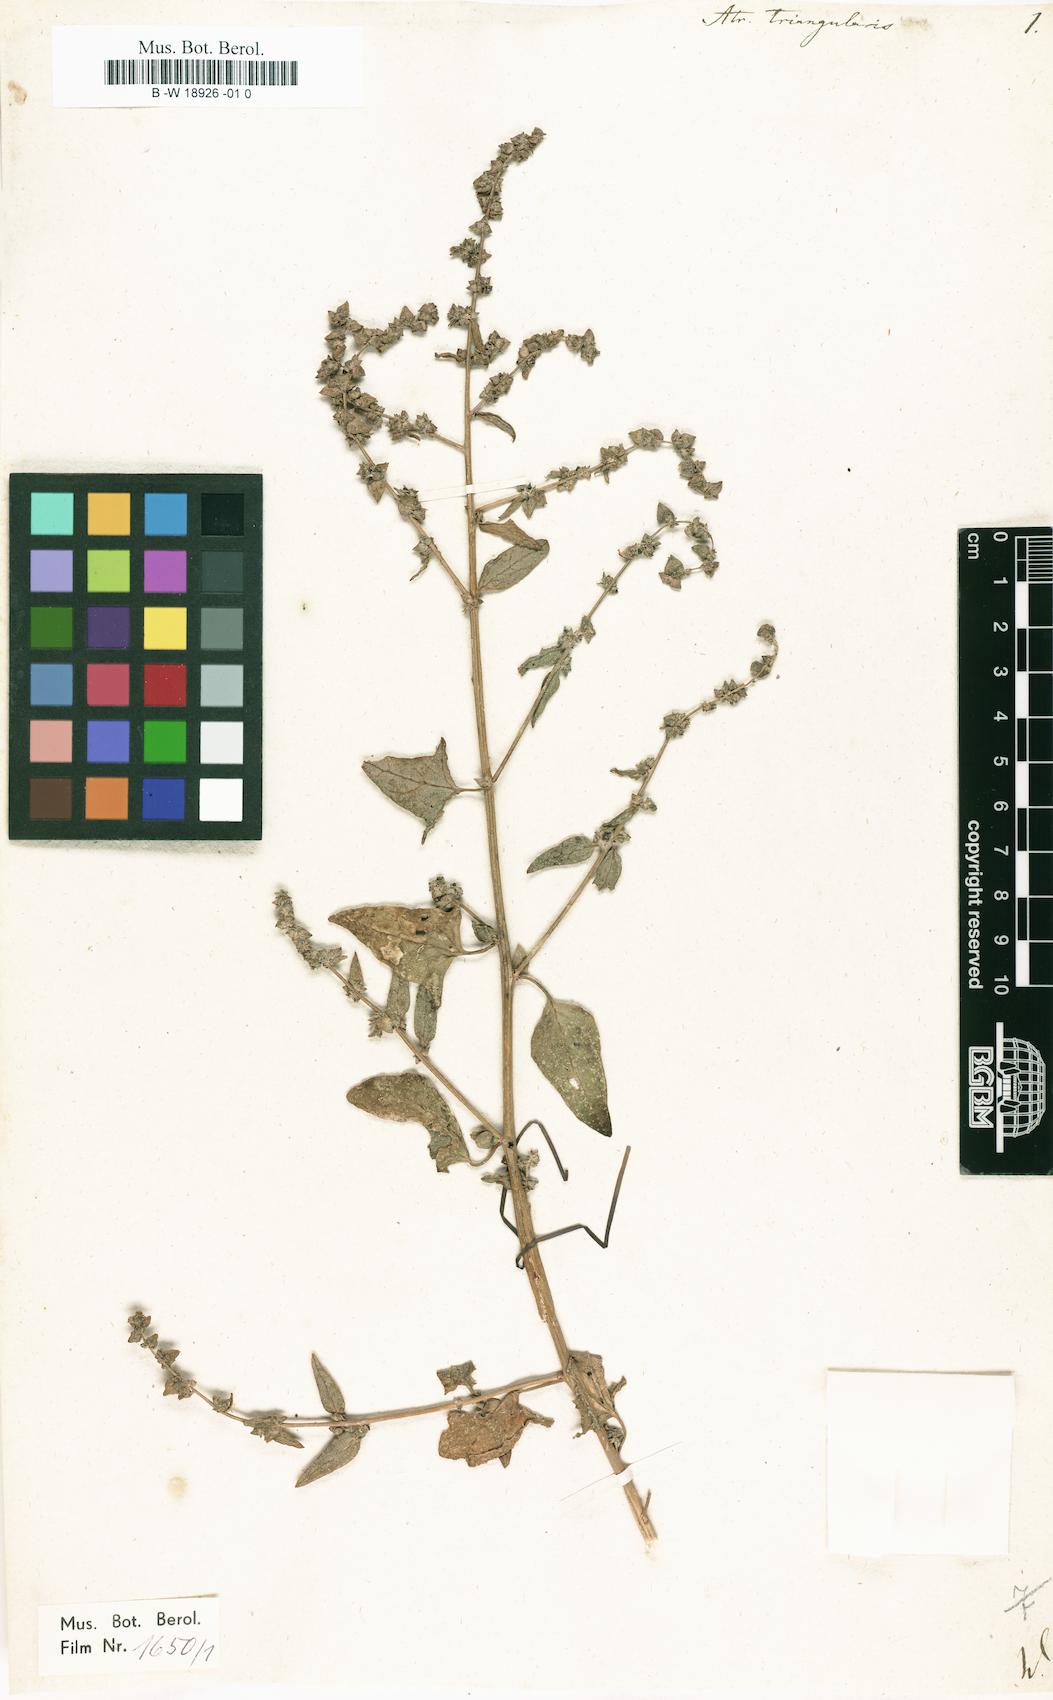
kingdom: Plantae
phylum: Tracheophyta
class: Magnoliopsida
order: Caryophyllales
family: Amaranthaceae
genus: Atriplex
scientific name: Atriplex prostrata
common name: Spear-leaved orache
